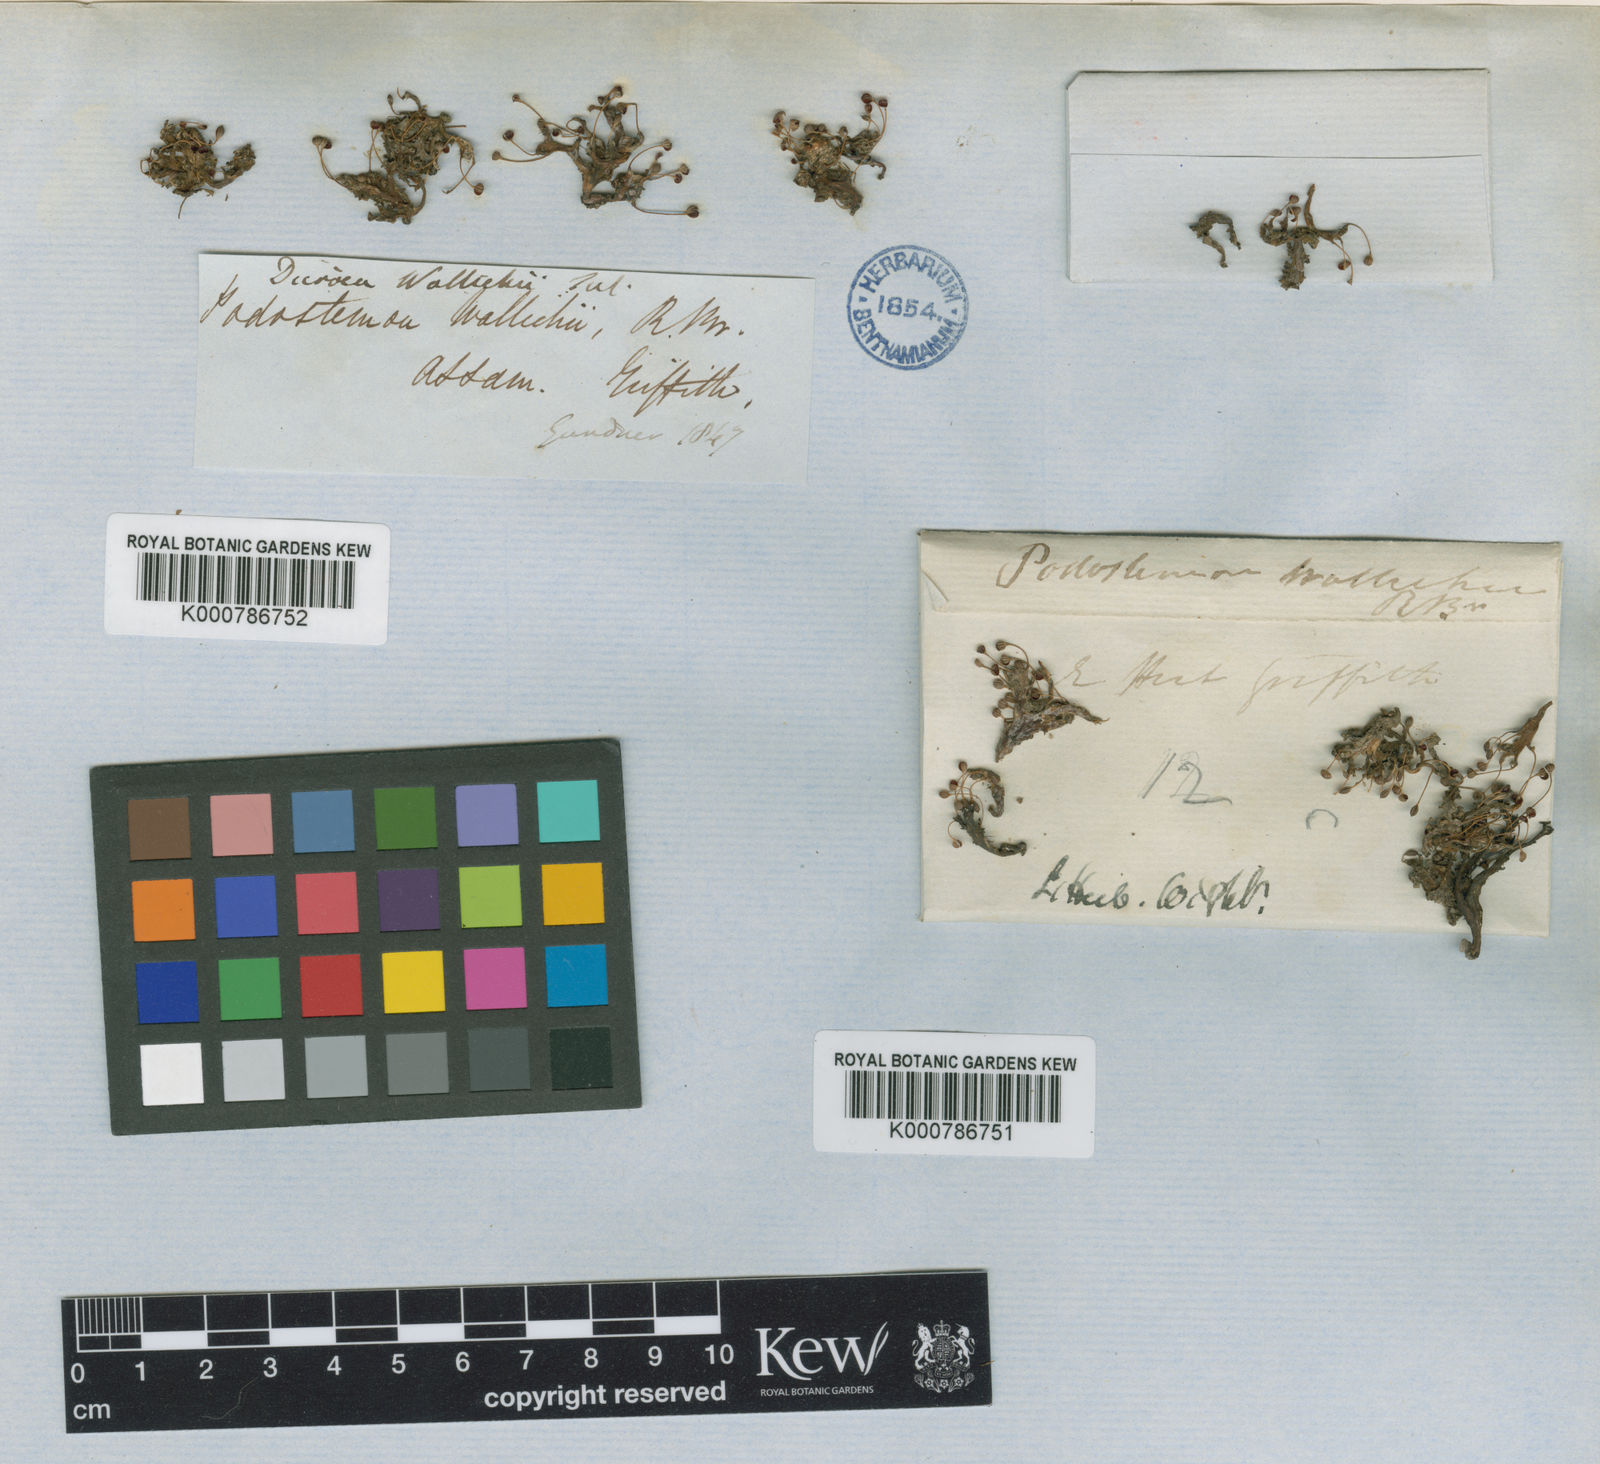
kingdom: Plantae
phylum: Tracheophyta
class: Magnoliopsida
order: Malpighiales
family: Podostemaceae
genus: Polypleurum
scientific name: Polypleurum wallichii
